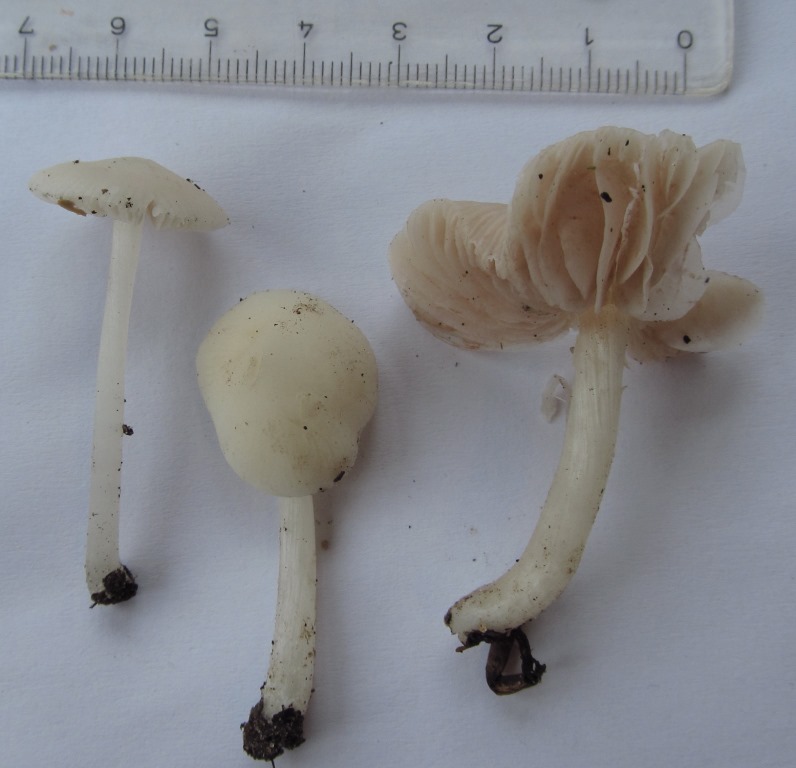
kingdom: Fungi
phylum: Basidiomycota
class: Agaricomycetes
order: Agaricales
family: Pluteaceae
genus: Pluteus
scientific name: Pluteus inquilinus
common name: skær skærmhat
